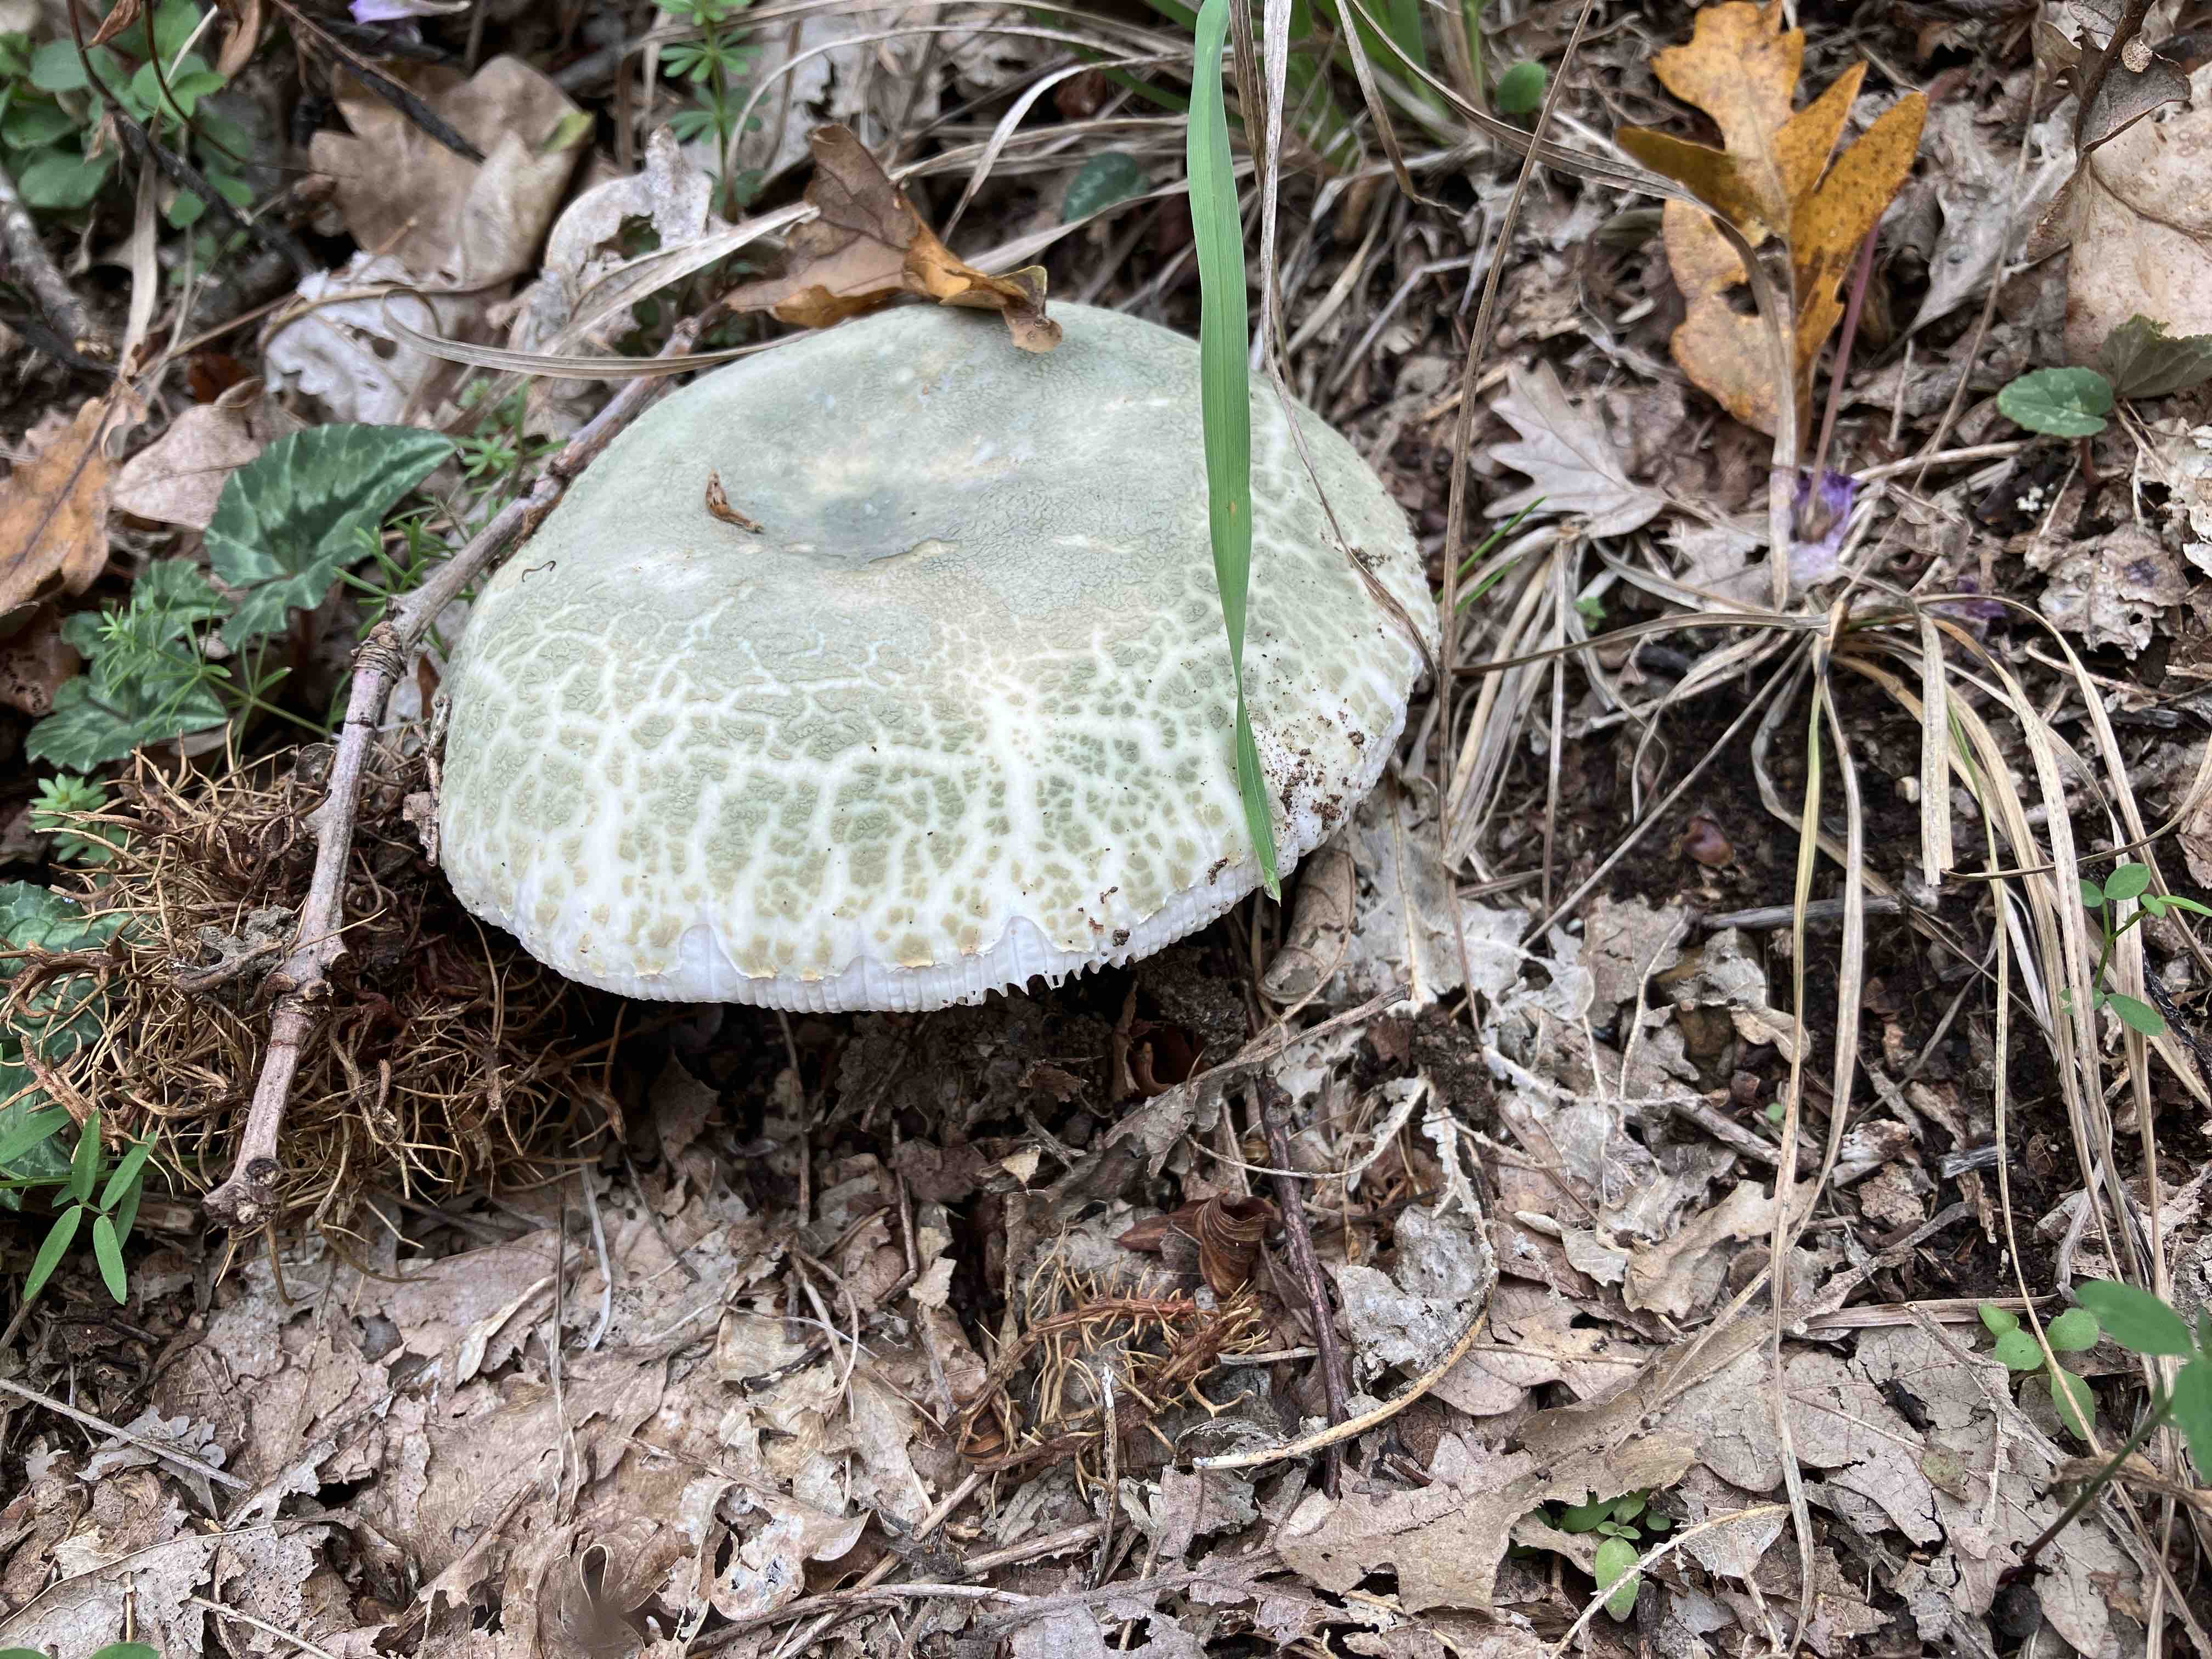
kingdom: Fungi
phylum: Basidiomycota
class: Agaricomycetes
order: Russulales
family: Russulaceae
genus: Russula
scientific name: Russula virescens
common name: spanskgrøn skørhat
